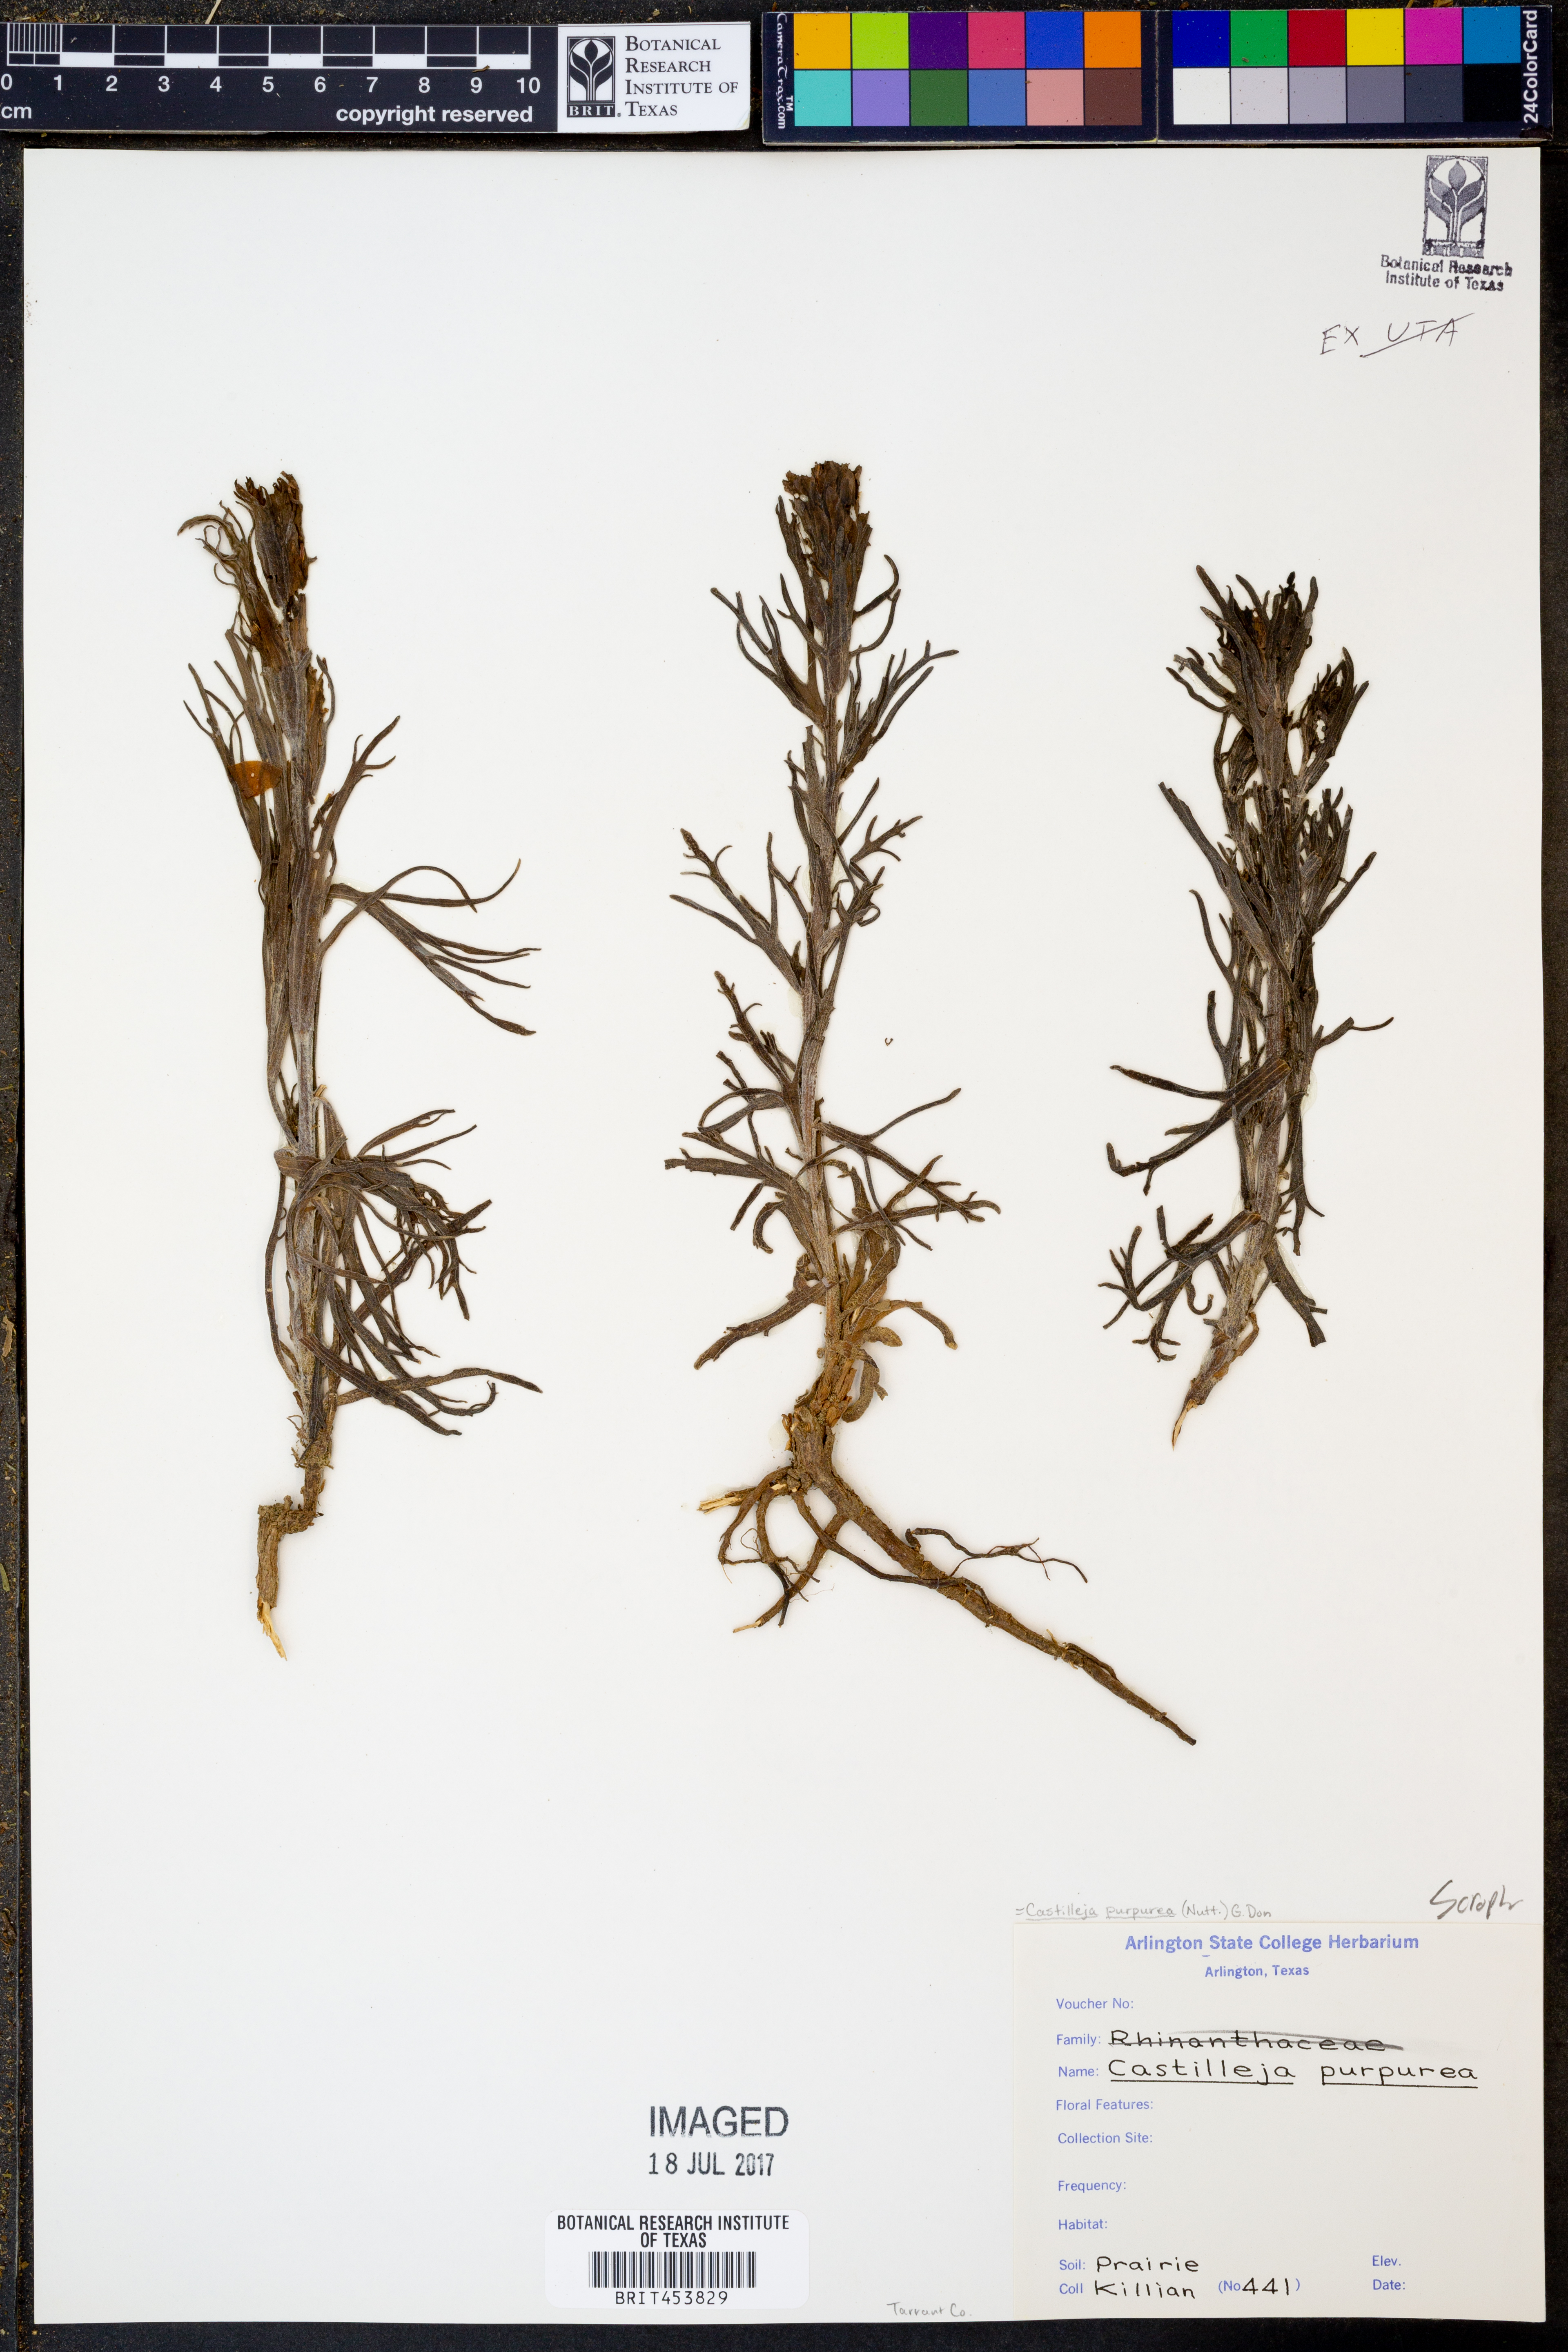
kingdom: Plantae
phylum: Tracheophyta
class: Magnoliopsida
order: Lamiales
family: Orobanchaceae
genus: Castilleja
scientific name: Castilleja purpurea
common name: Plains paintbrush
